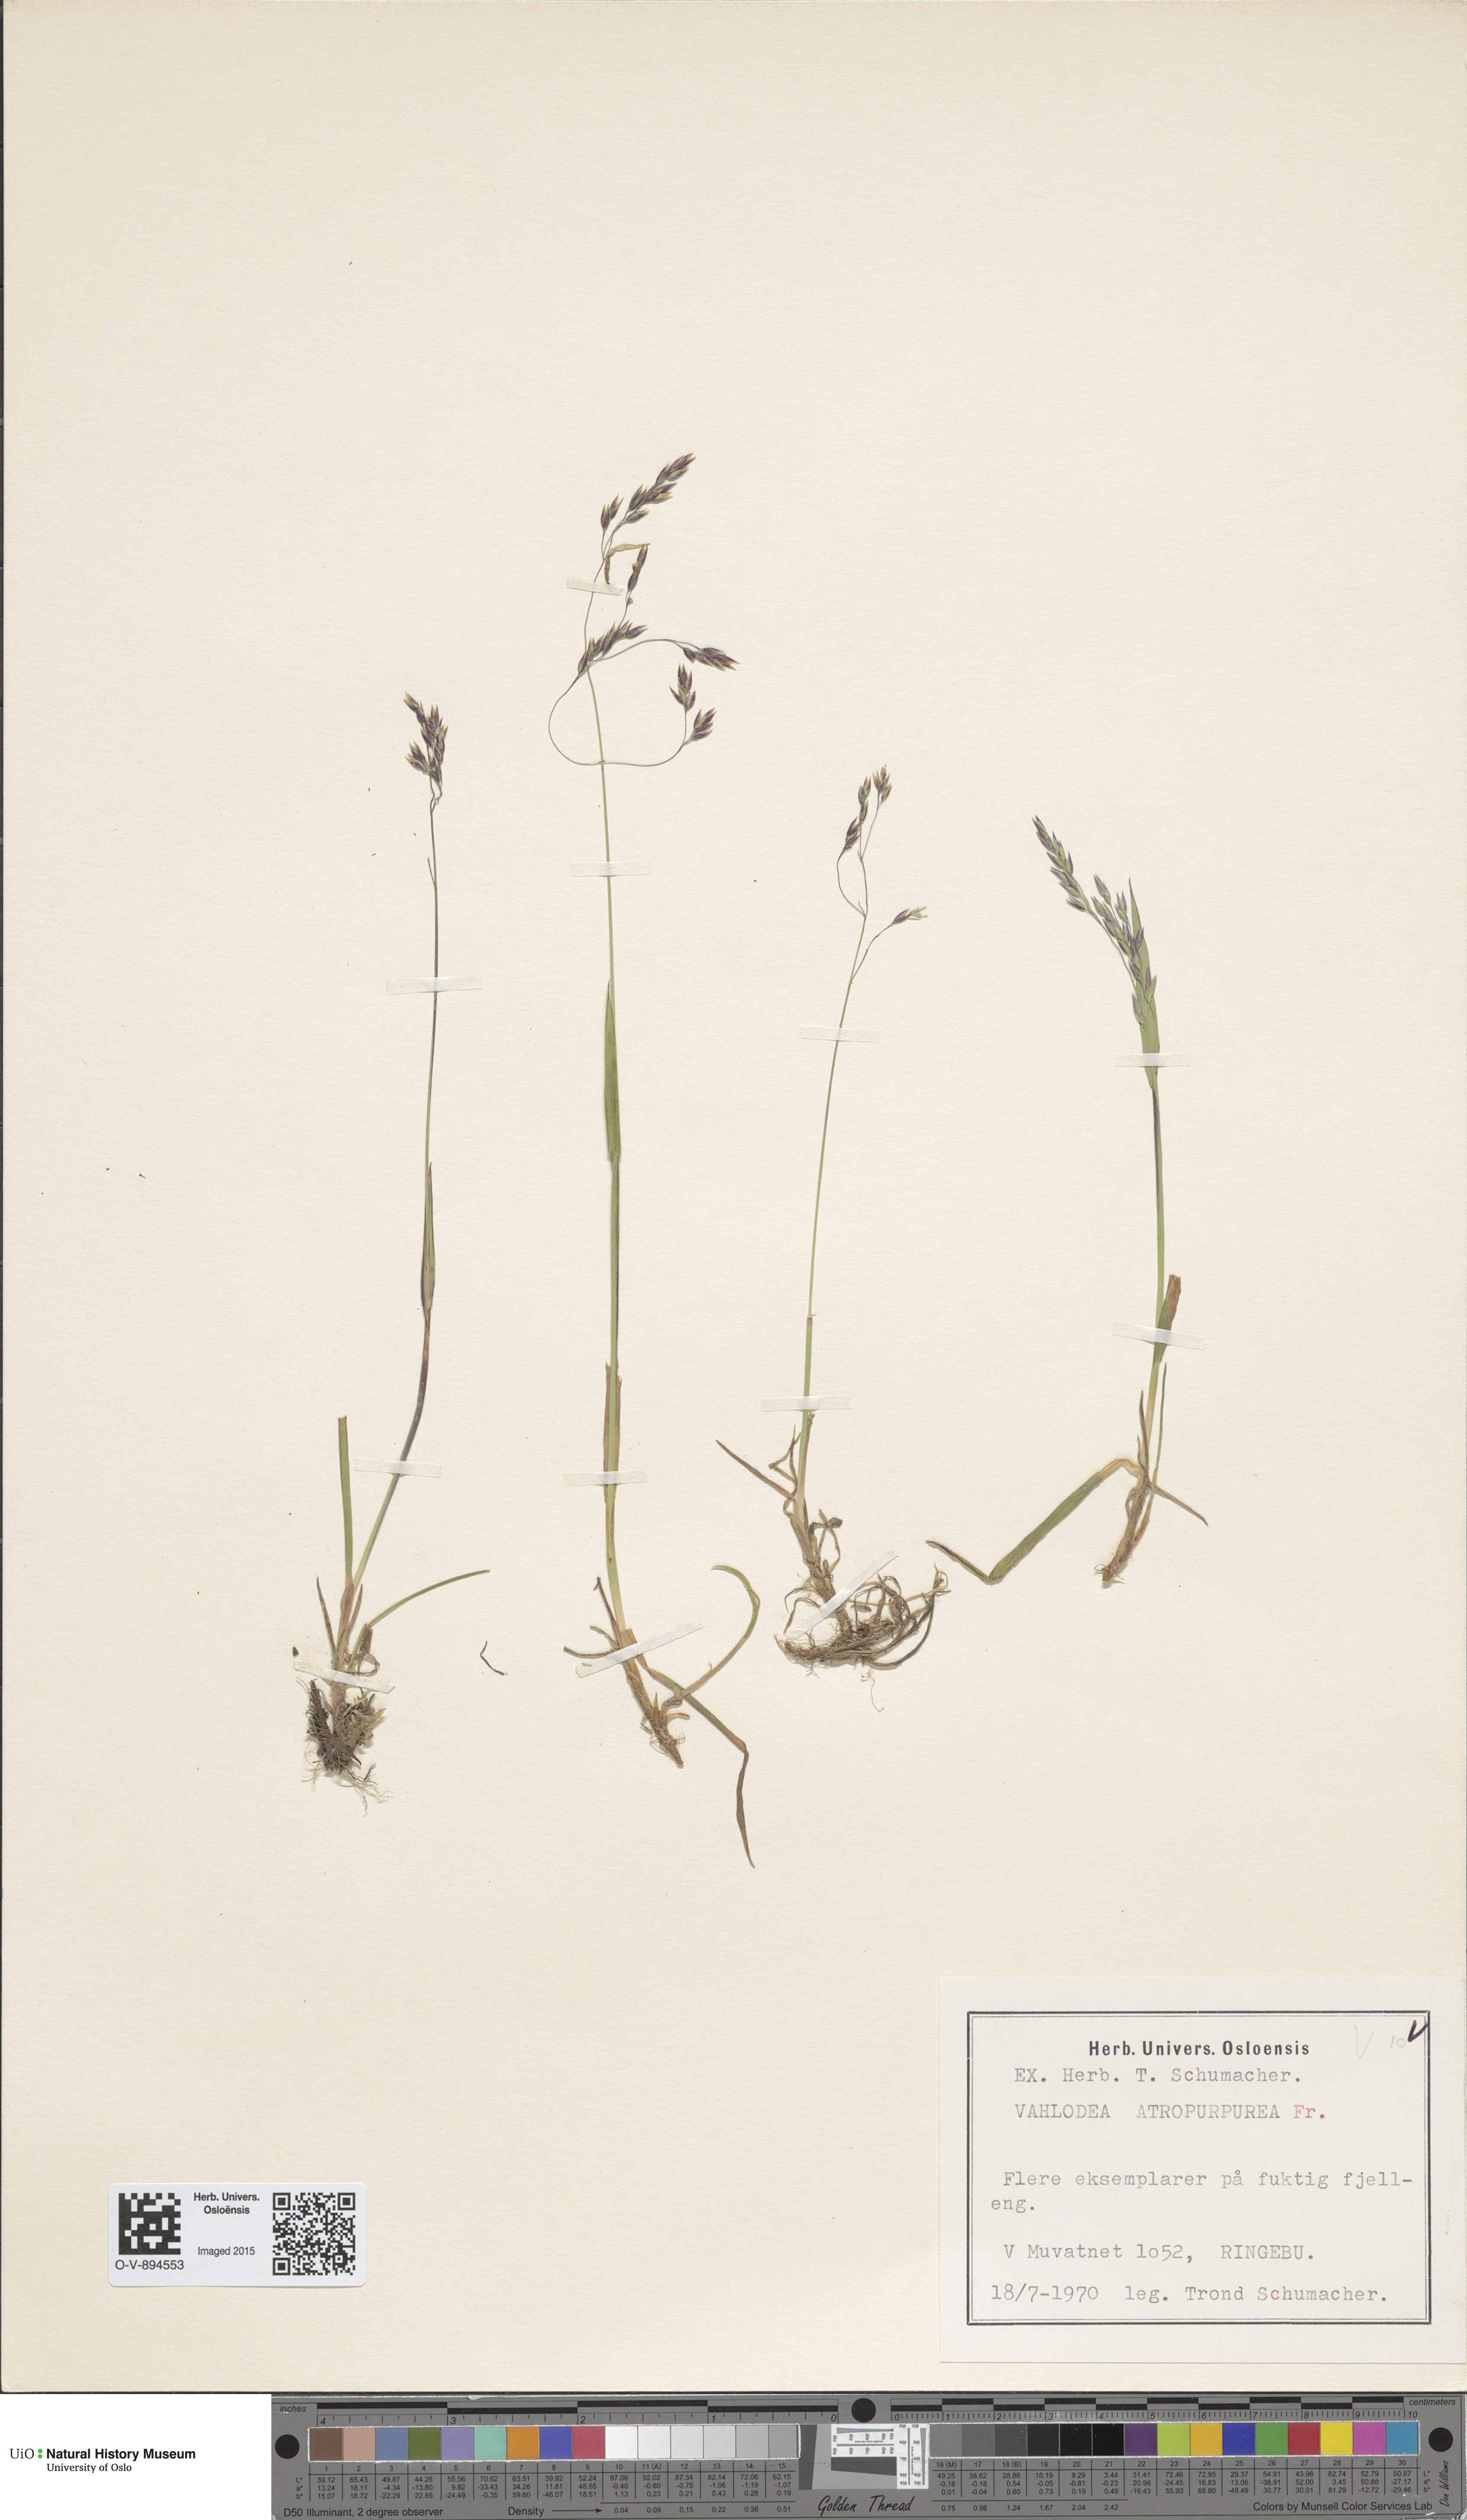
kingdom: Plantae
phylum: Tracheophyta
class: Liliopsida
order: Poales
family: Poaceae
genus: Vahlodea
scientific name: Vahlodea atropurpurea
